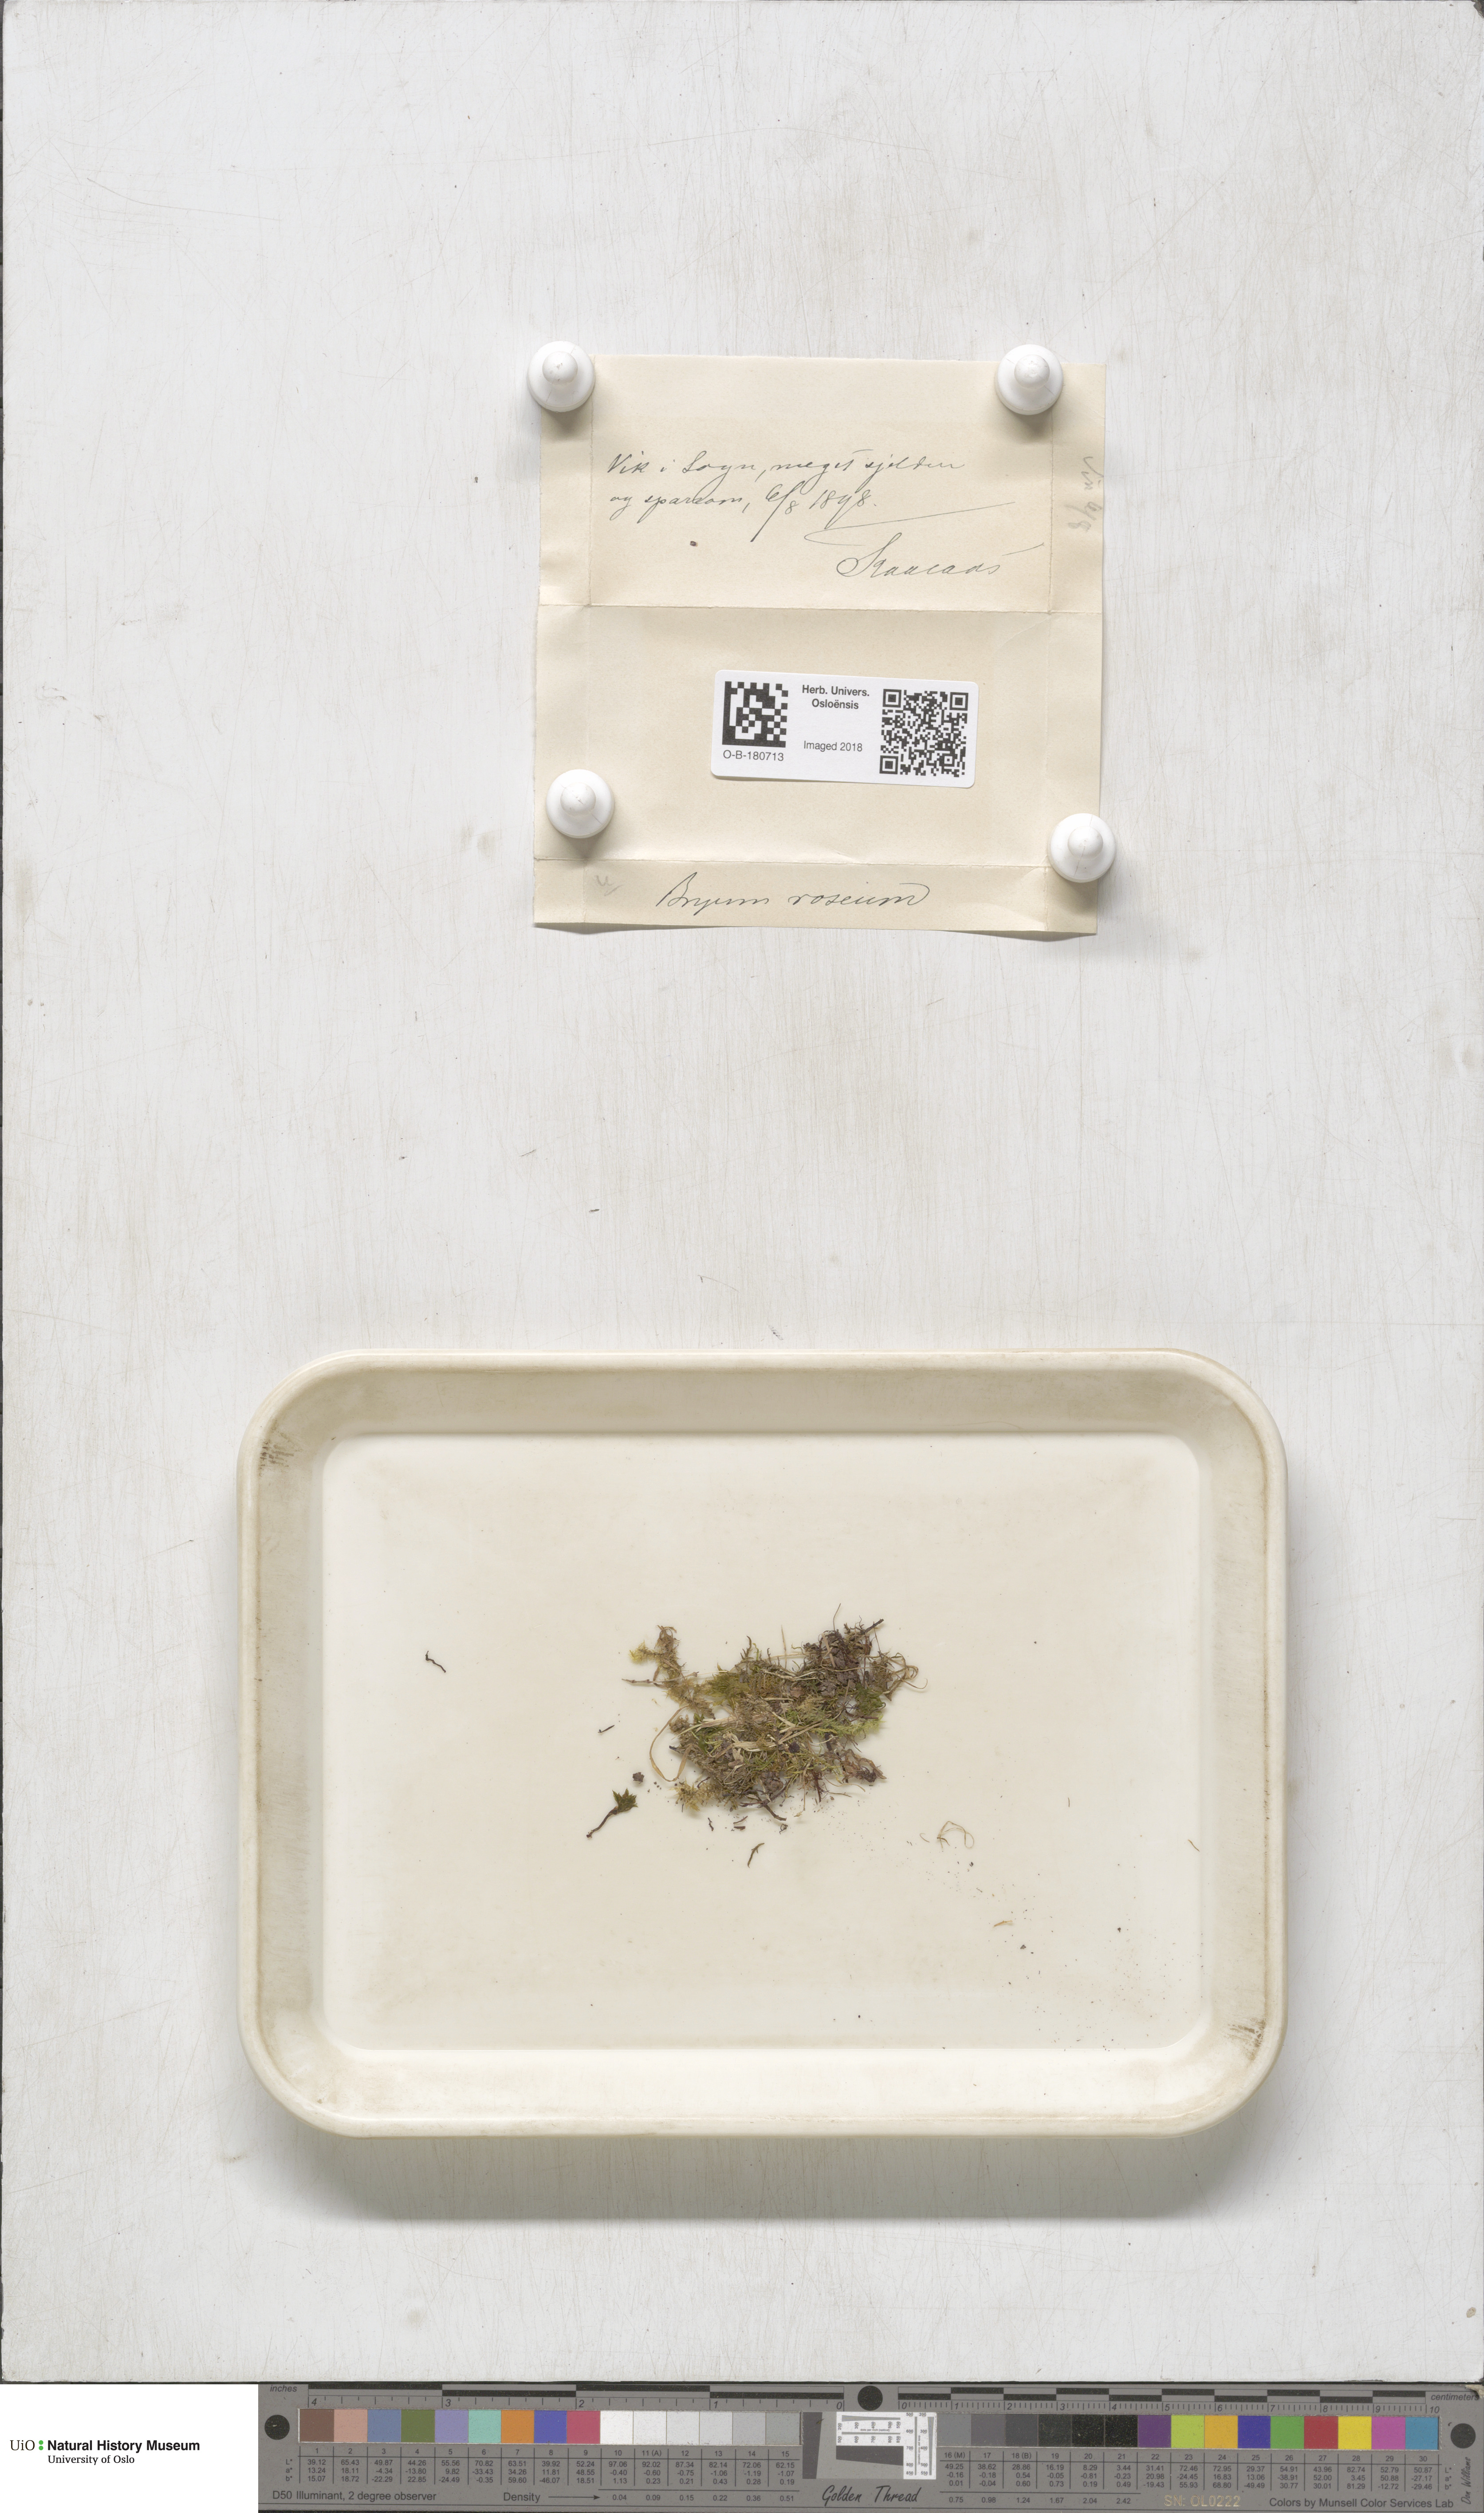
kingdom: Plantae
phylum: Bryophyta
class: Bryopsida
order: Bryales
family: Bryaceae
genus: Rhodobryum
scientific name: Rhodobryum roseum
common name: Rose-moss
